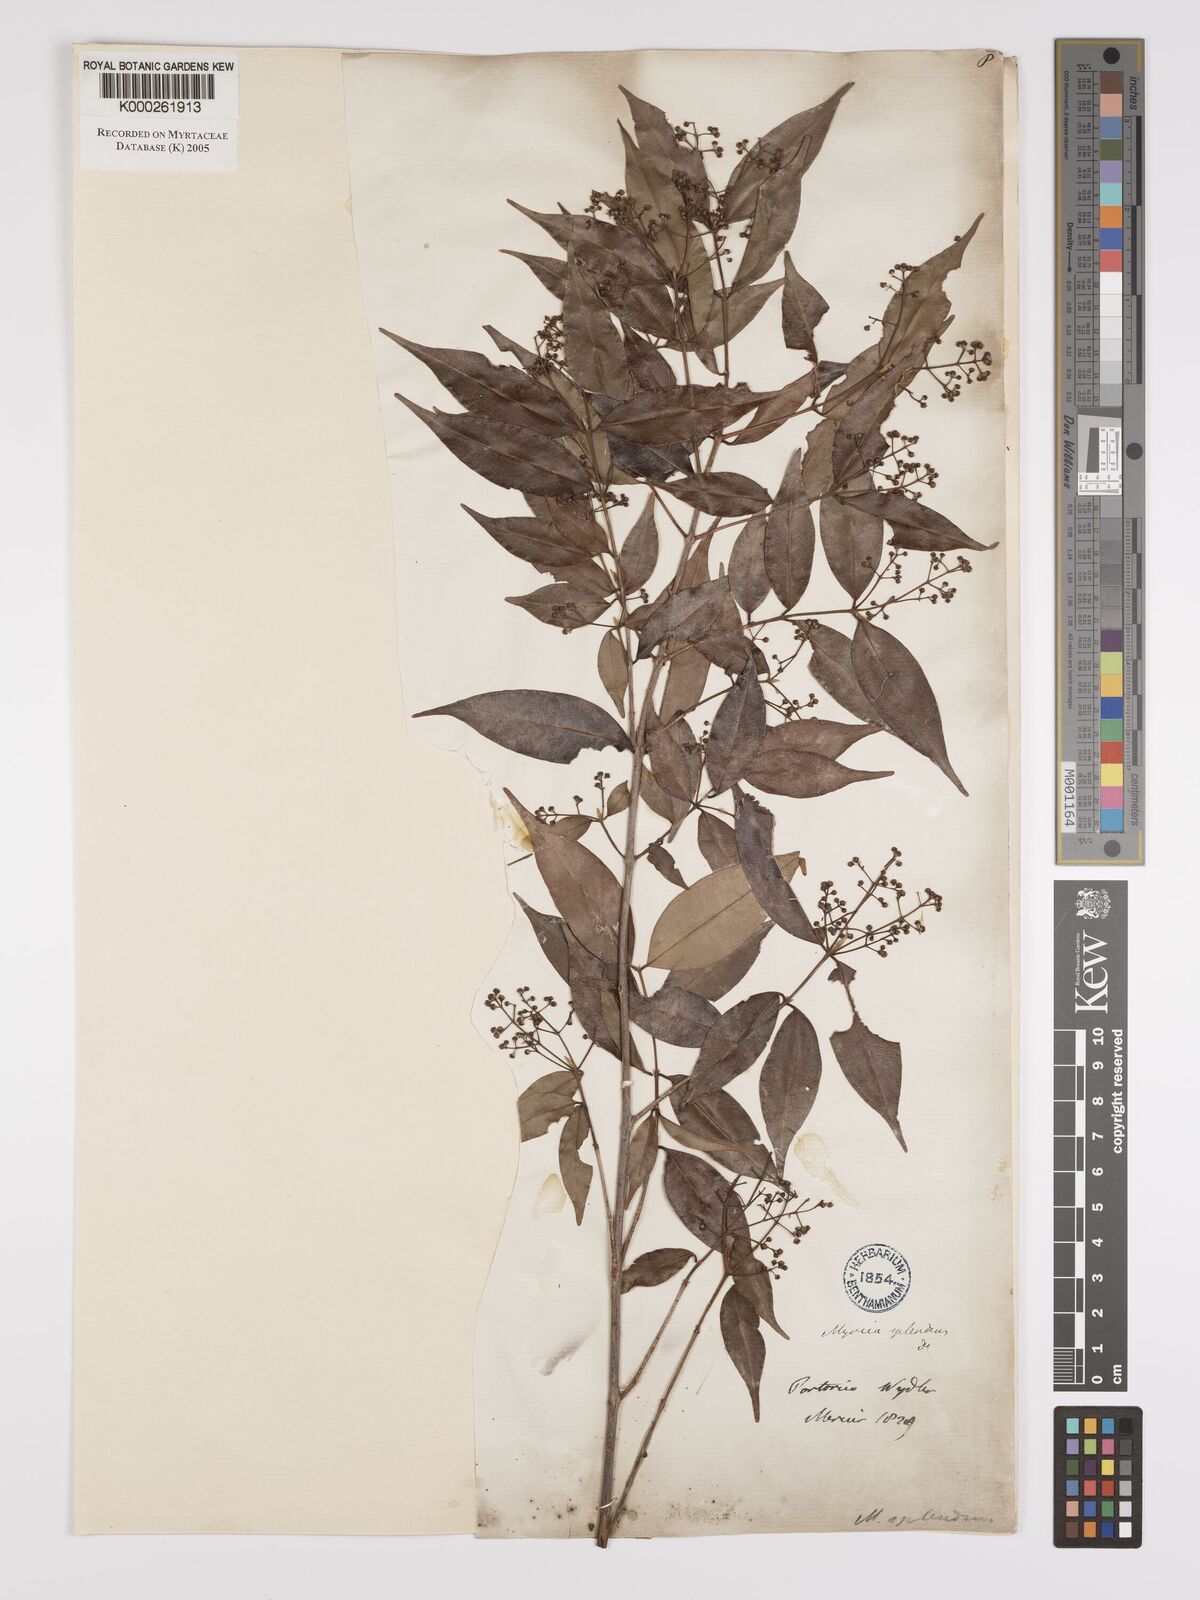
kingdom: Plantae
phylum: Tracheophyta
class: Magnoliopsida
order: Myrtales
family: Myrtaceae
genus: Myrcia
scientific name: Myrcia splendens
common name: Surinam cherry
